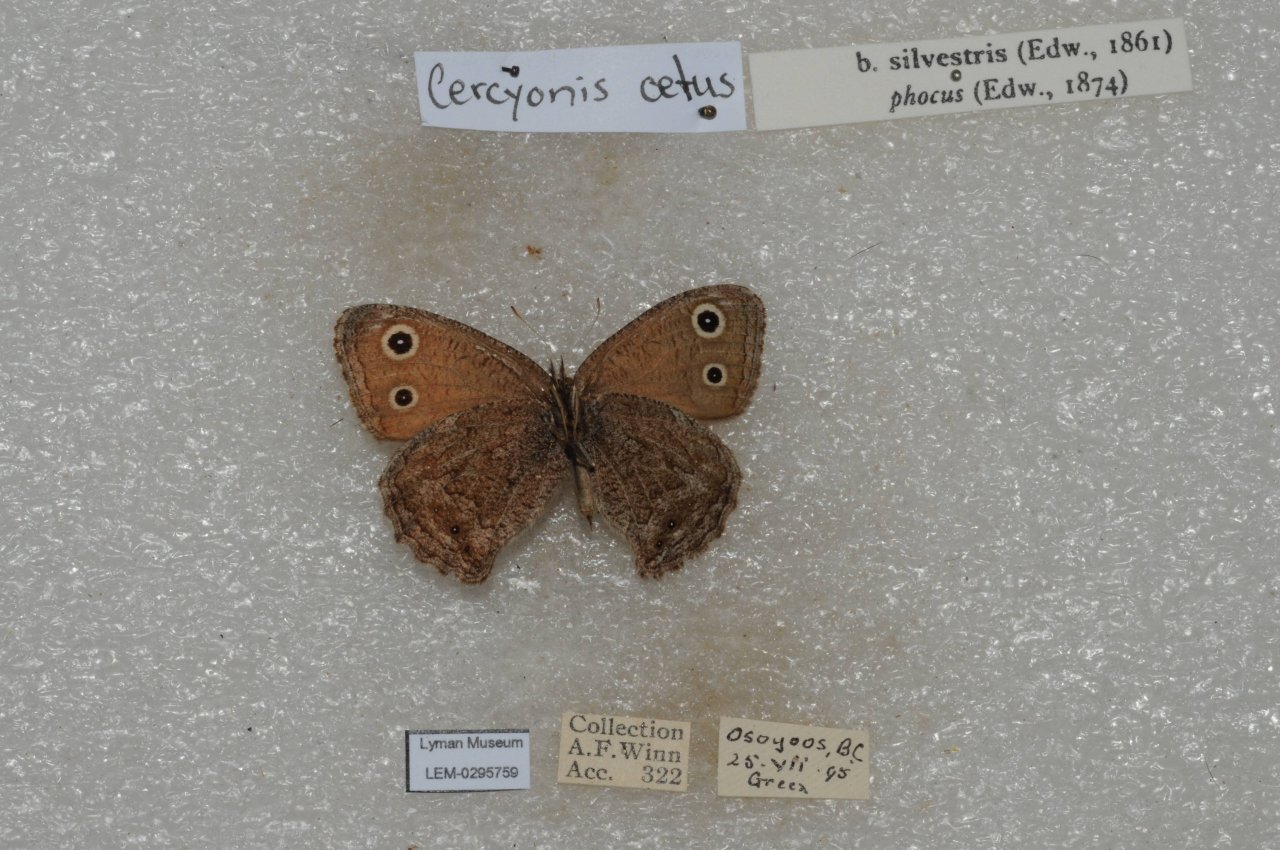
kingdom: Animalia
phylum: Arthropoda
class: Insecta
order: Lepidoptera
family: Nymphalidae
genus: Cercyonis
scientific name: Cercyonis oetus
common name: Small Wood-Nymph
